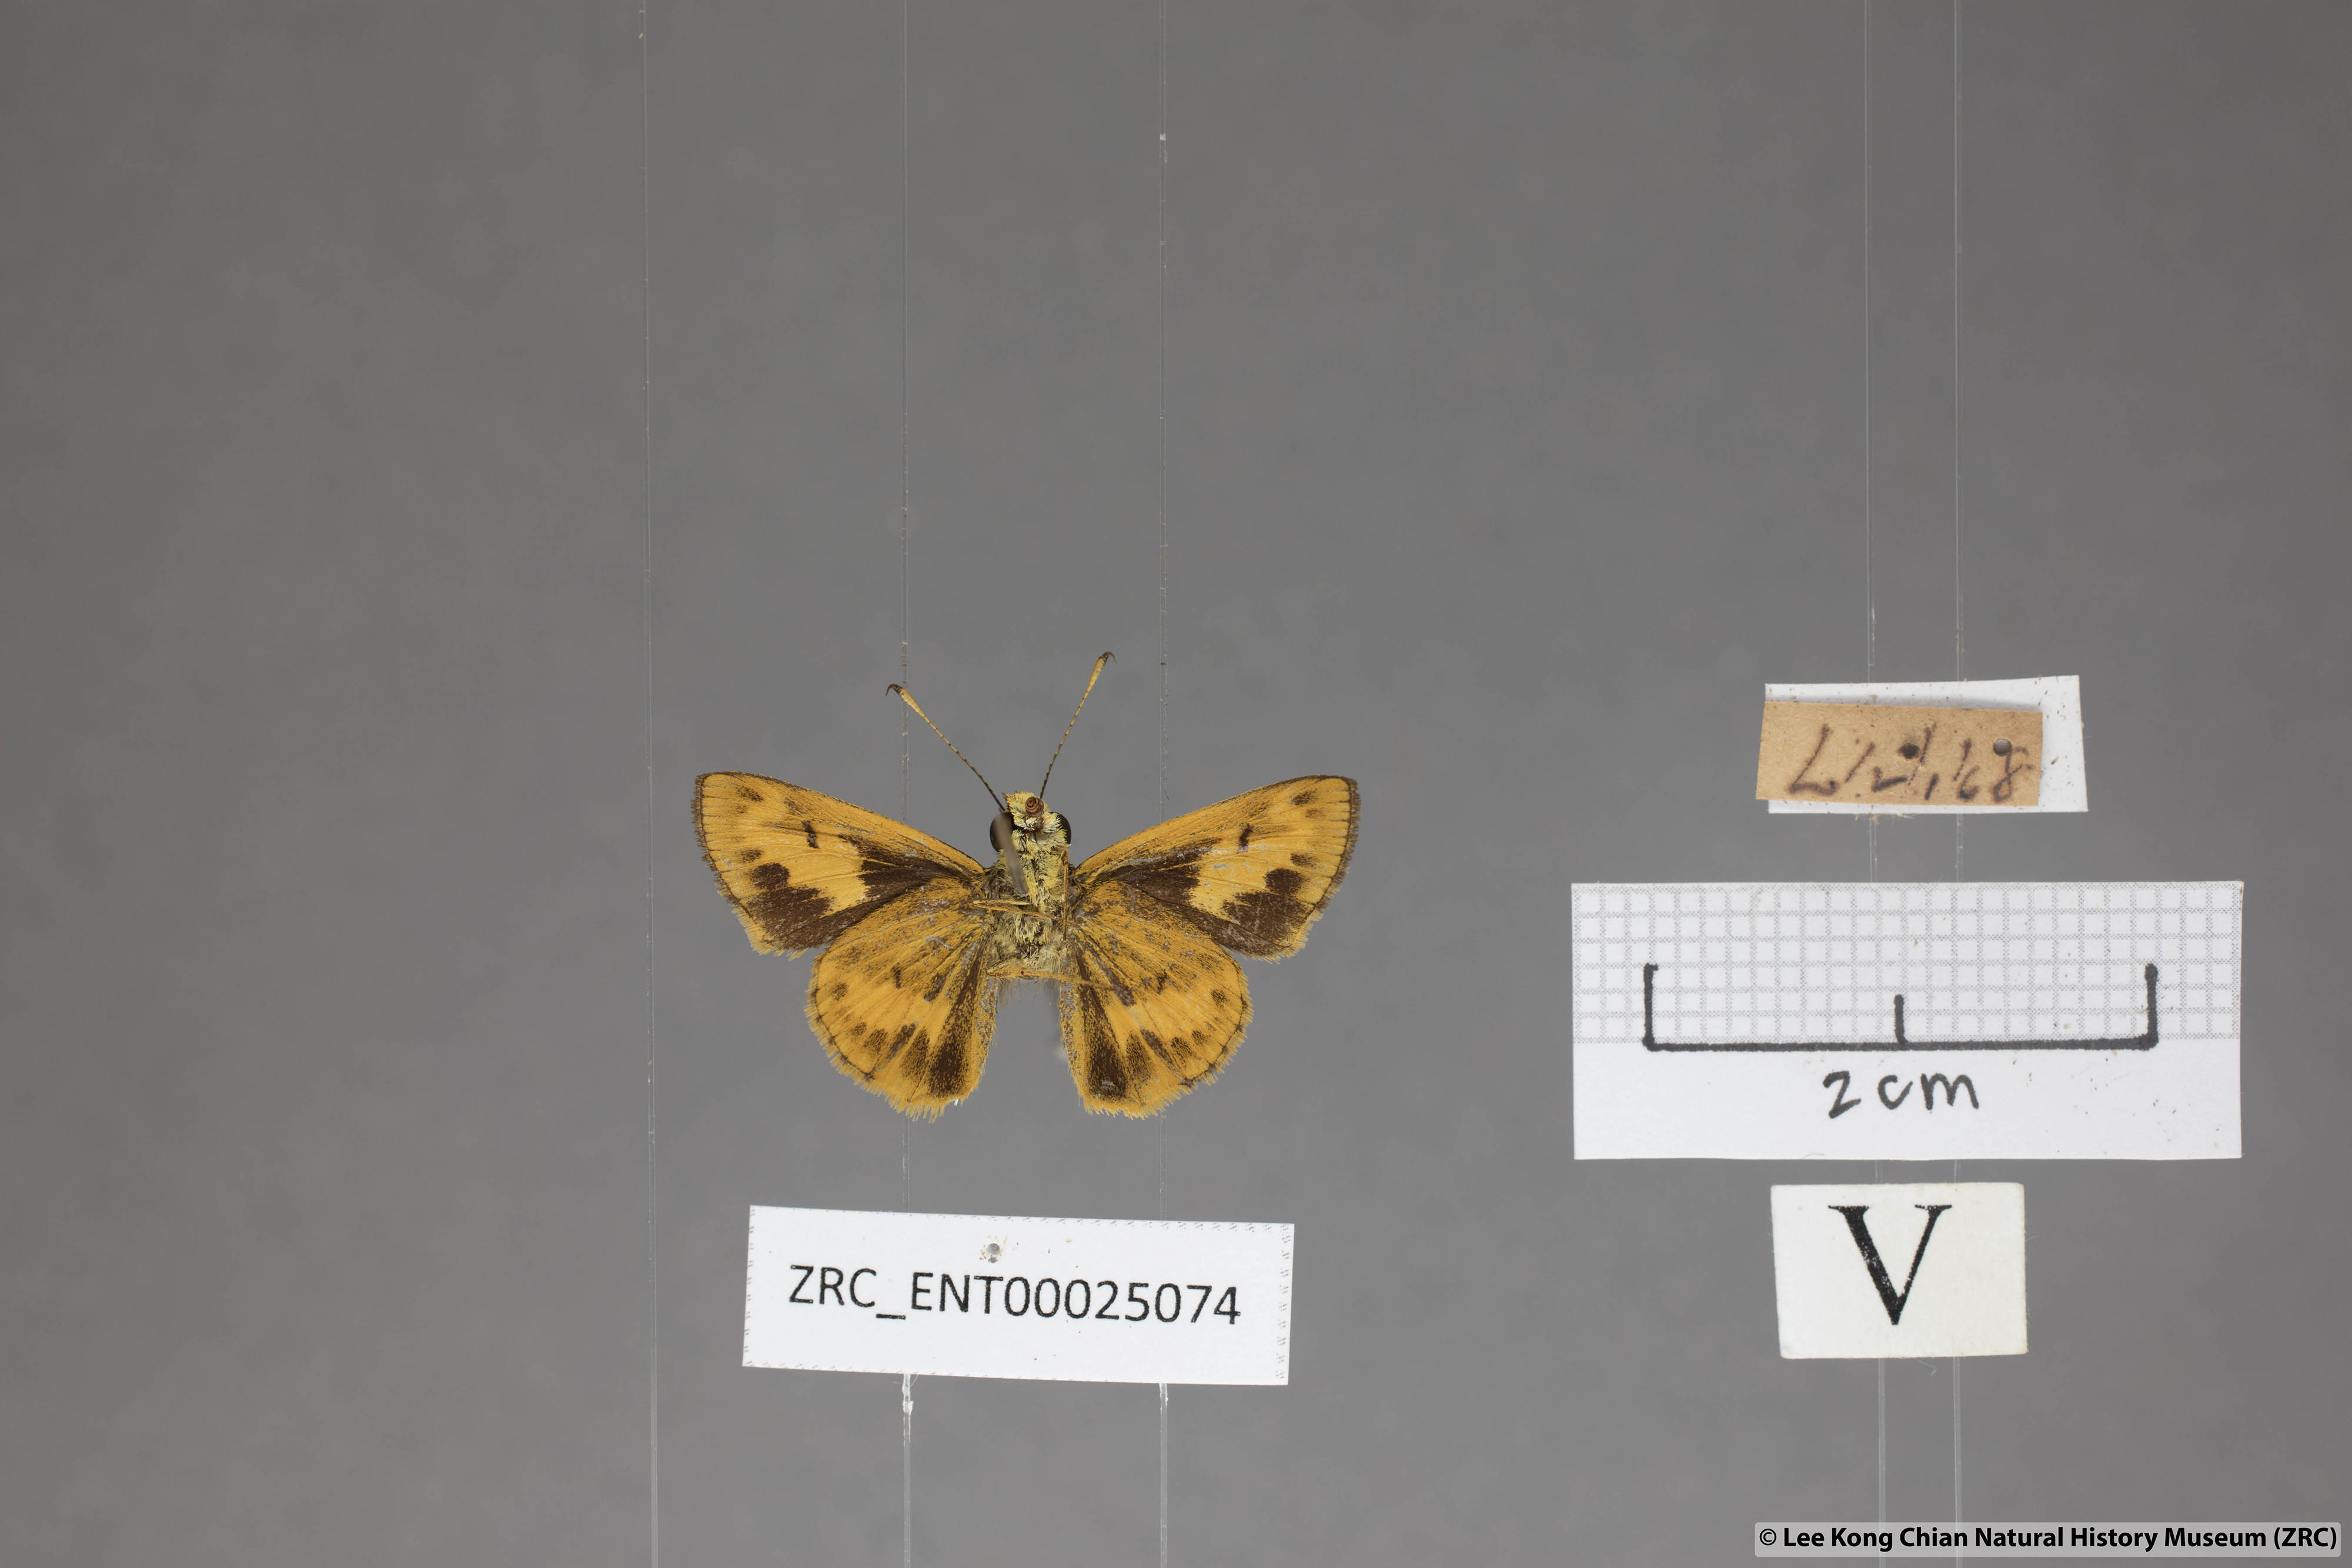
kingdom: Animalia
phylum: Arthropoda
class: Insecta
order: Lepidoptera
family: Hesperiidae
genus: Oriens
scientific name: Oriens gola
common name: Common dartlet
